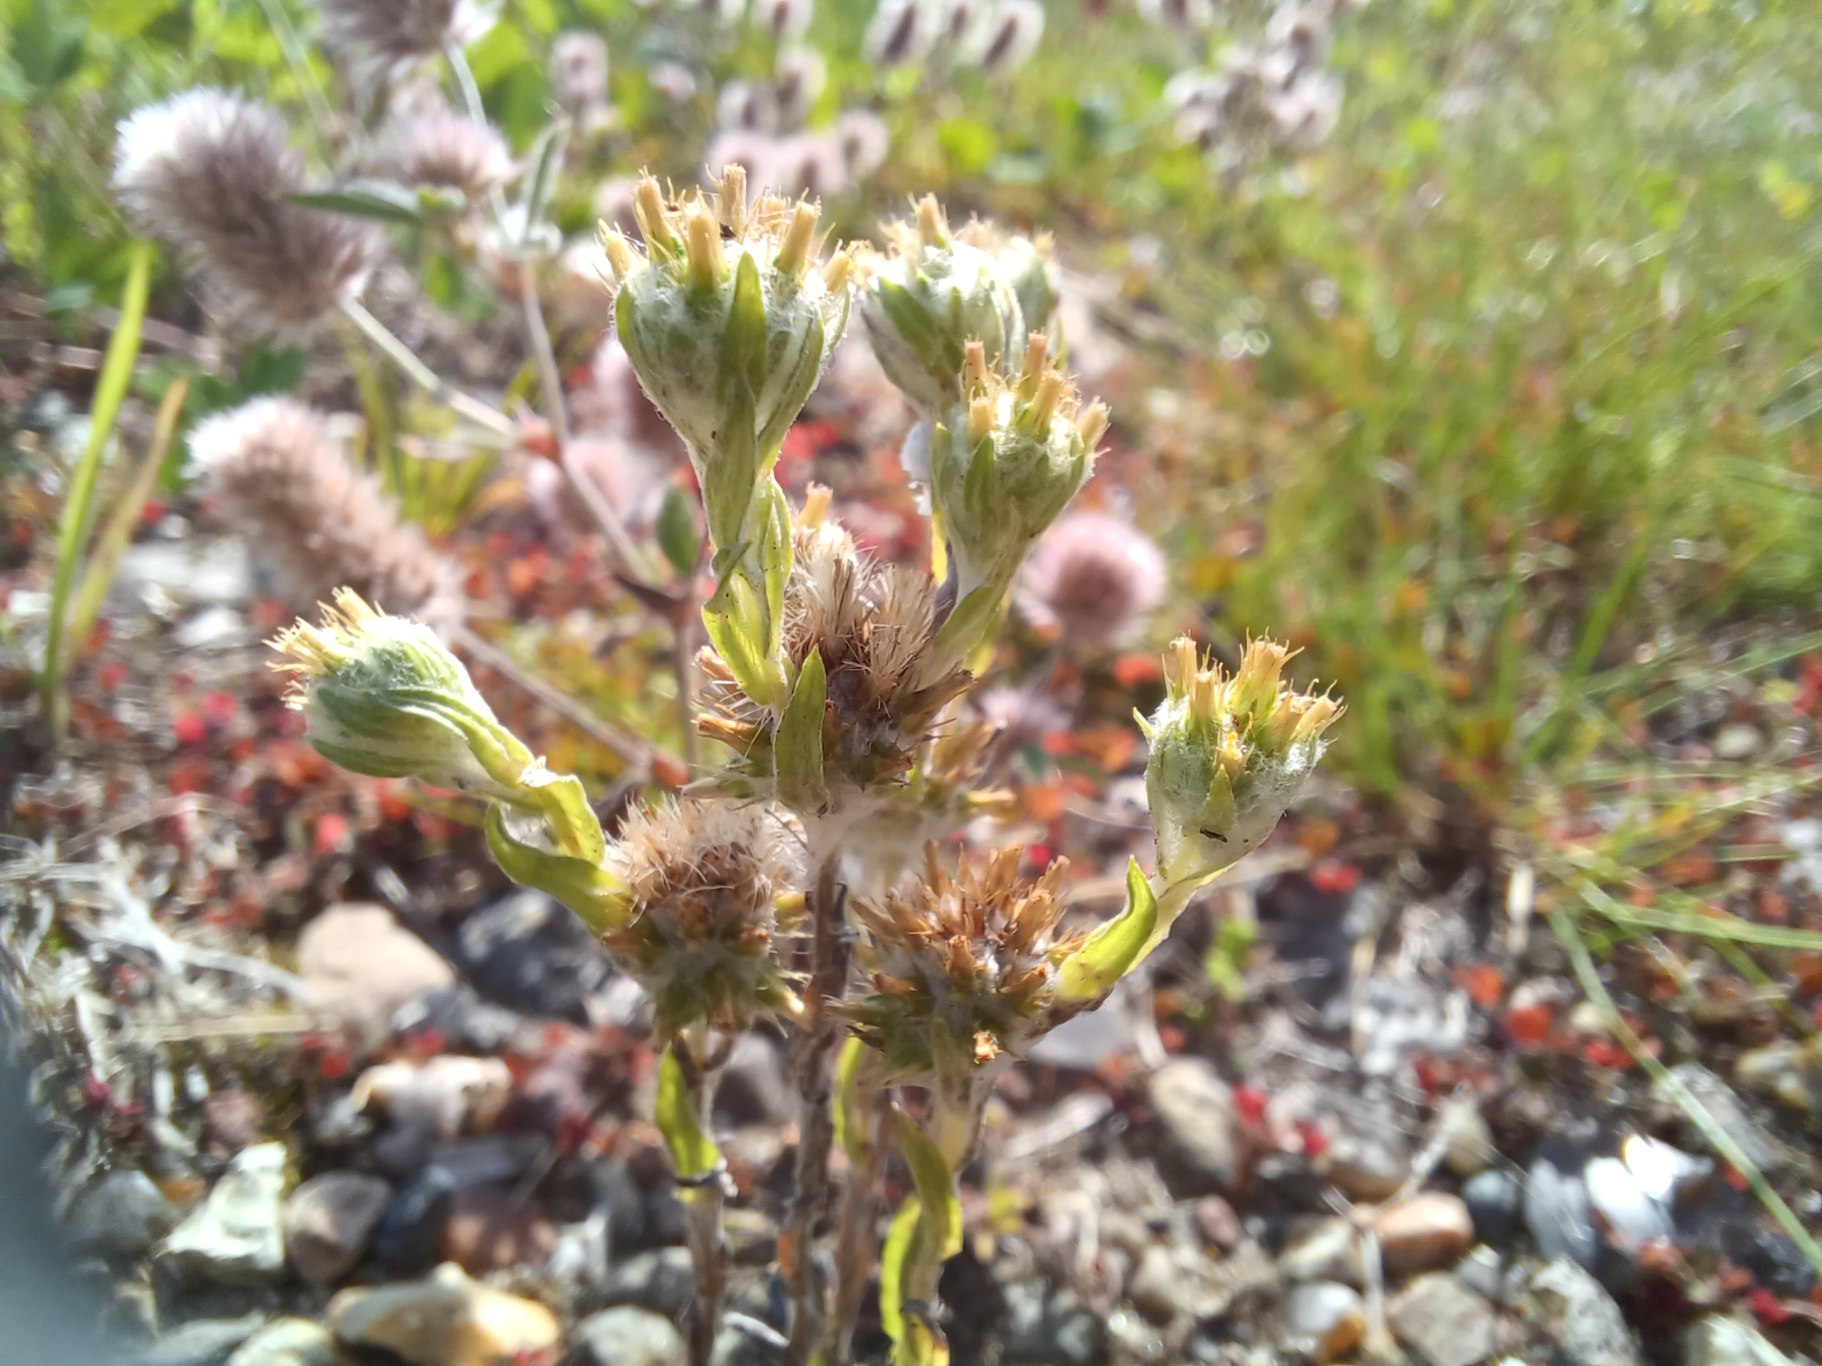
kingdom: Plantae
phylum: Tracheophyta
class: Magnoliopsida
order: Asterales
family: Asteraceae
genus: Filago
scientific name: Filago germanica
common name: Kugle-museurt
